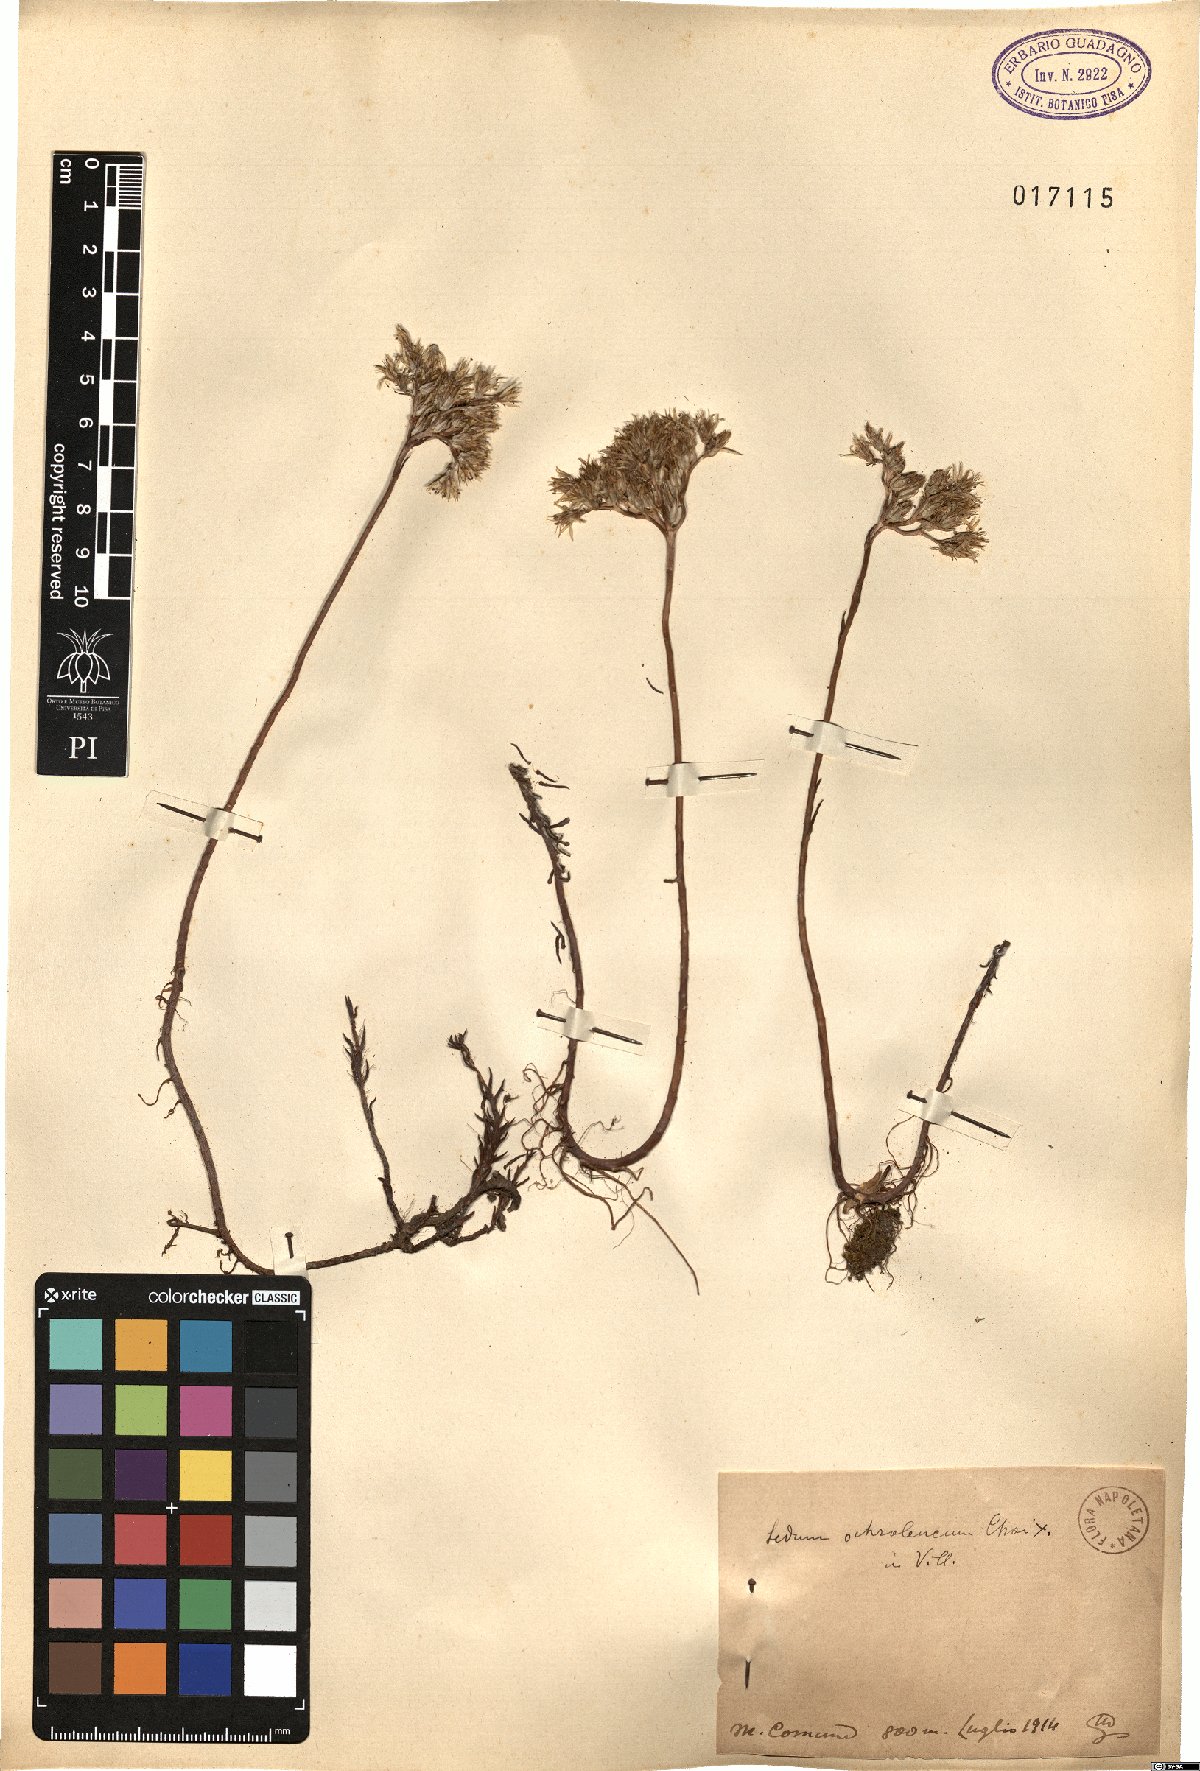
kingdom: Plantae
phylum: Tracheophyta
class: Magnoliopsida
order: Saxifragales
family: Crassulaceae
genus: Petrosedum
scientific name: Petrosedum ochroleucum
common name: European stonecrop
